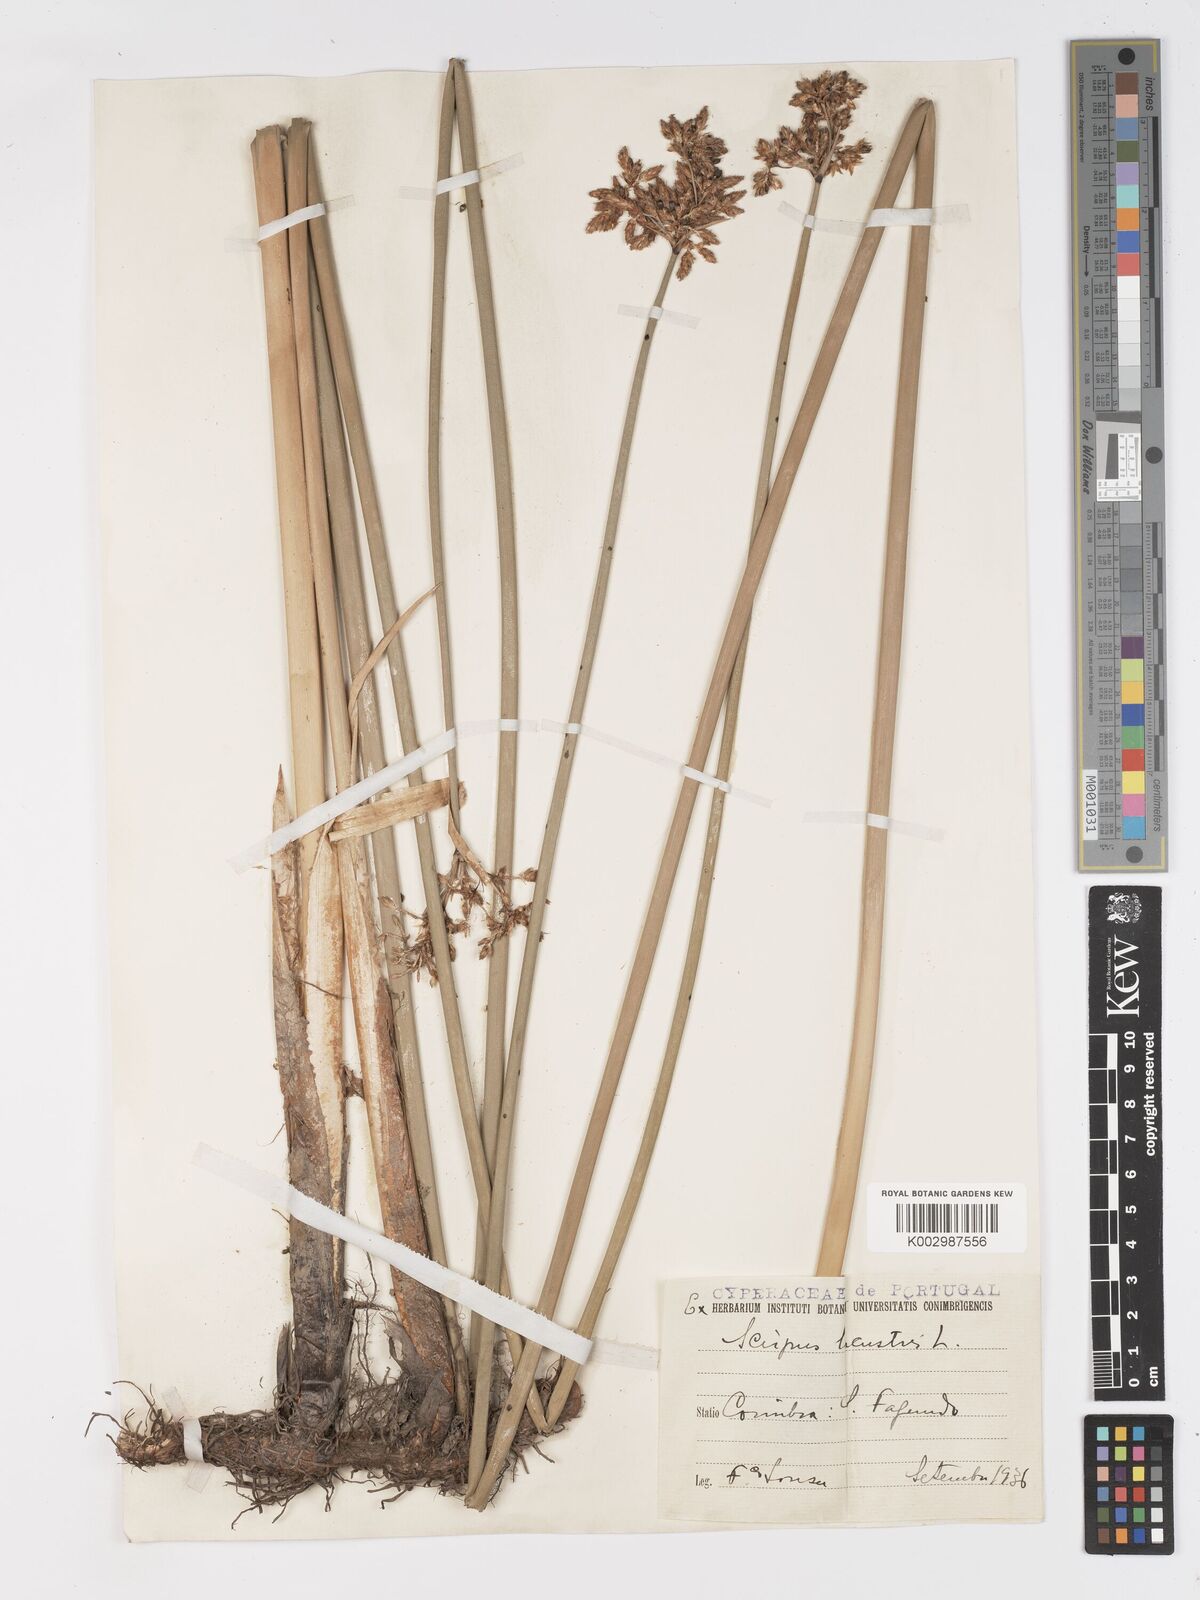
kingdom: Plantae
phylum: Tracheophyta
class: Liliopsida
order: Poales
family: Cyperaceae
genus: Schoenoplectus
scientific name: Schoenoplectus lacustris
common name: Common club-rush
